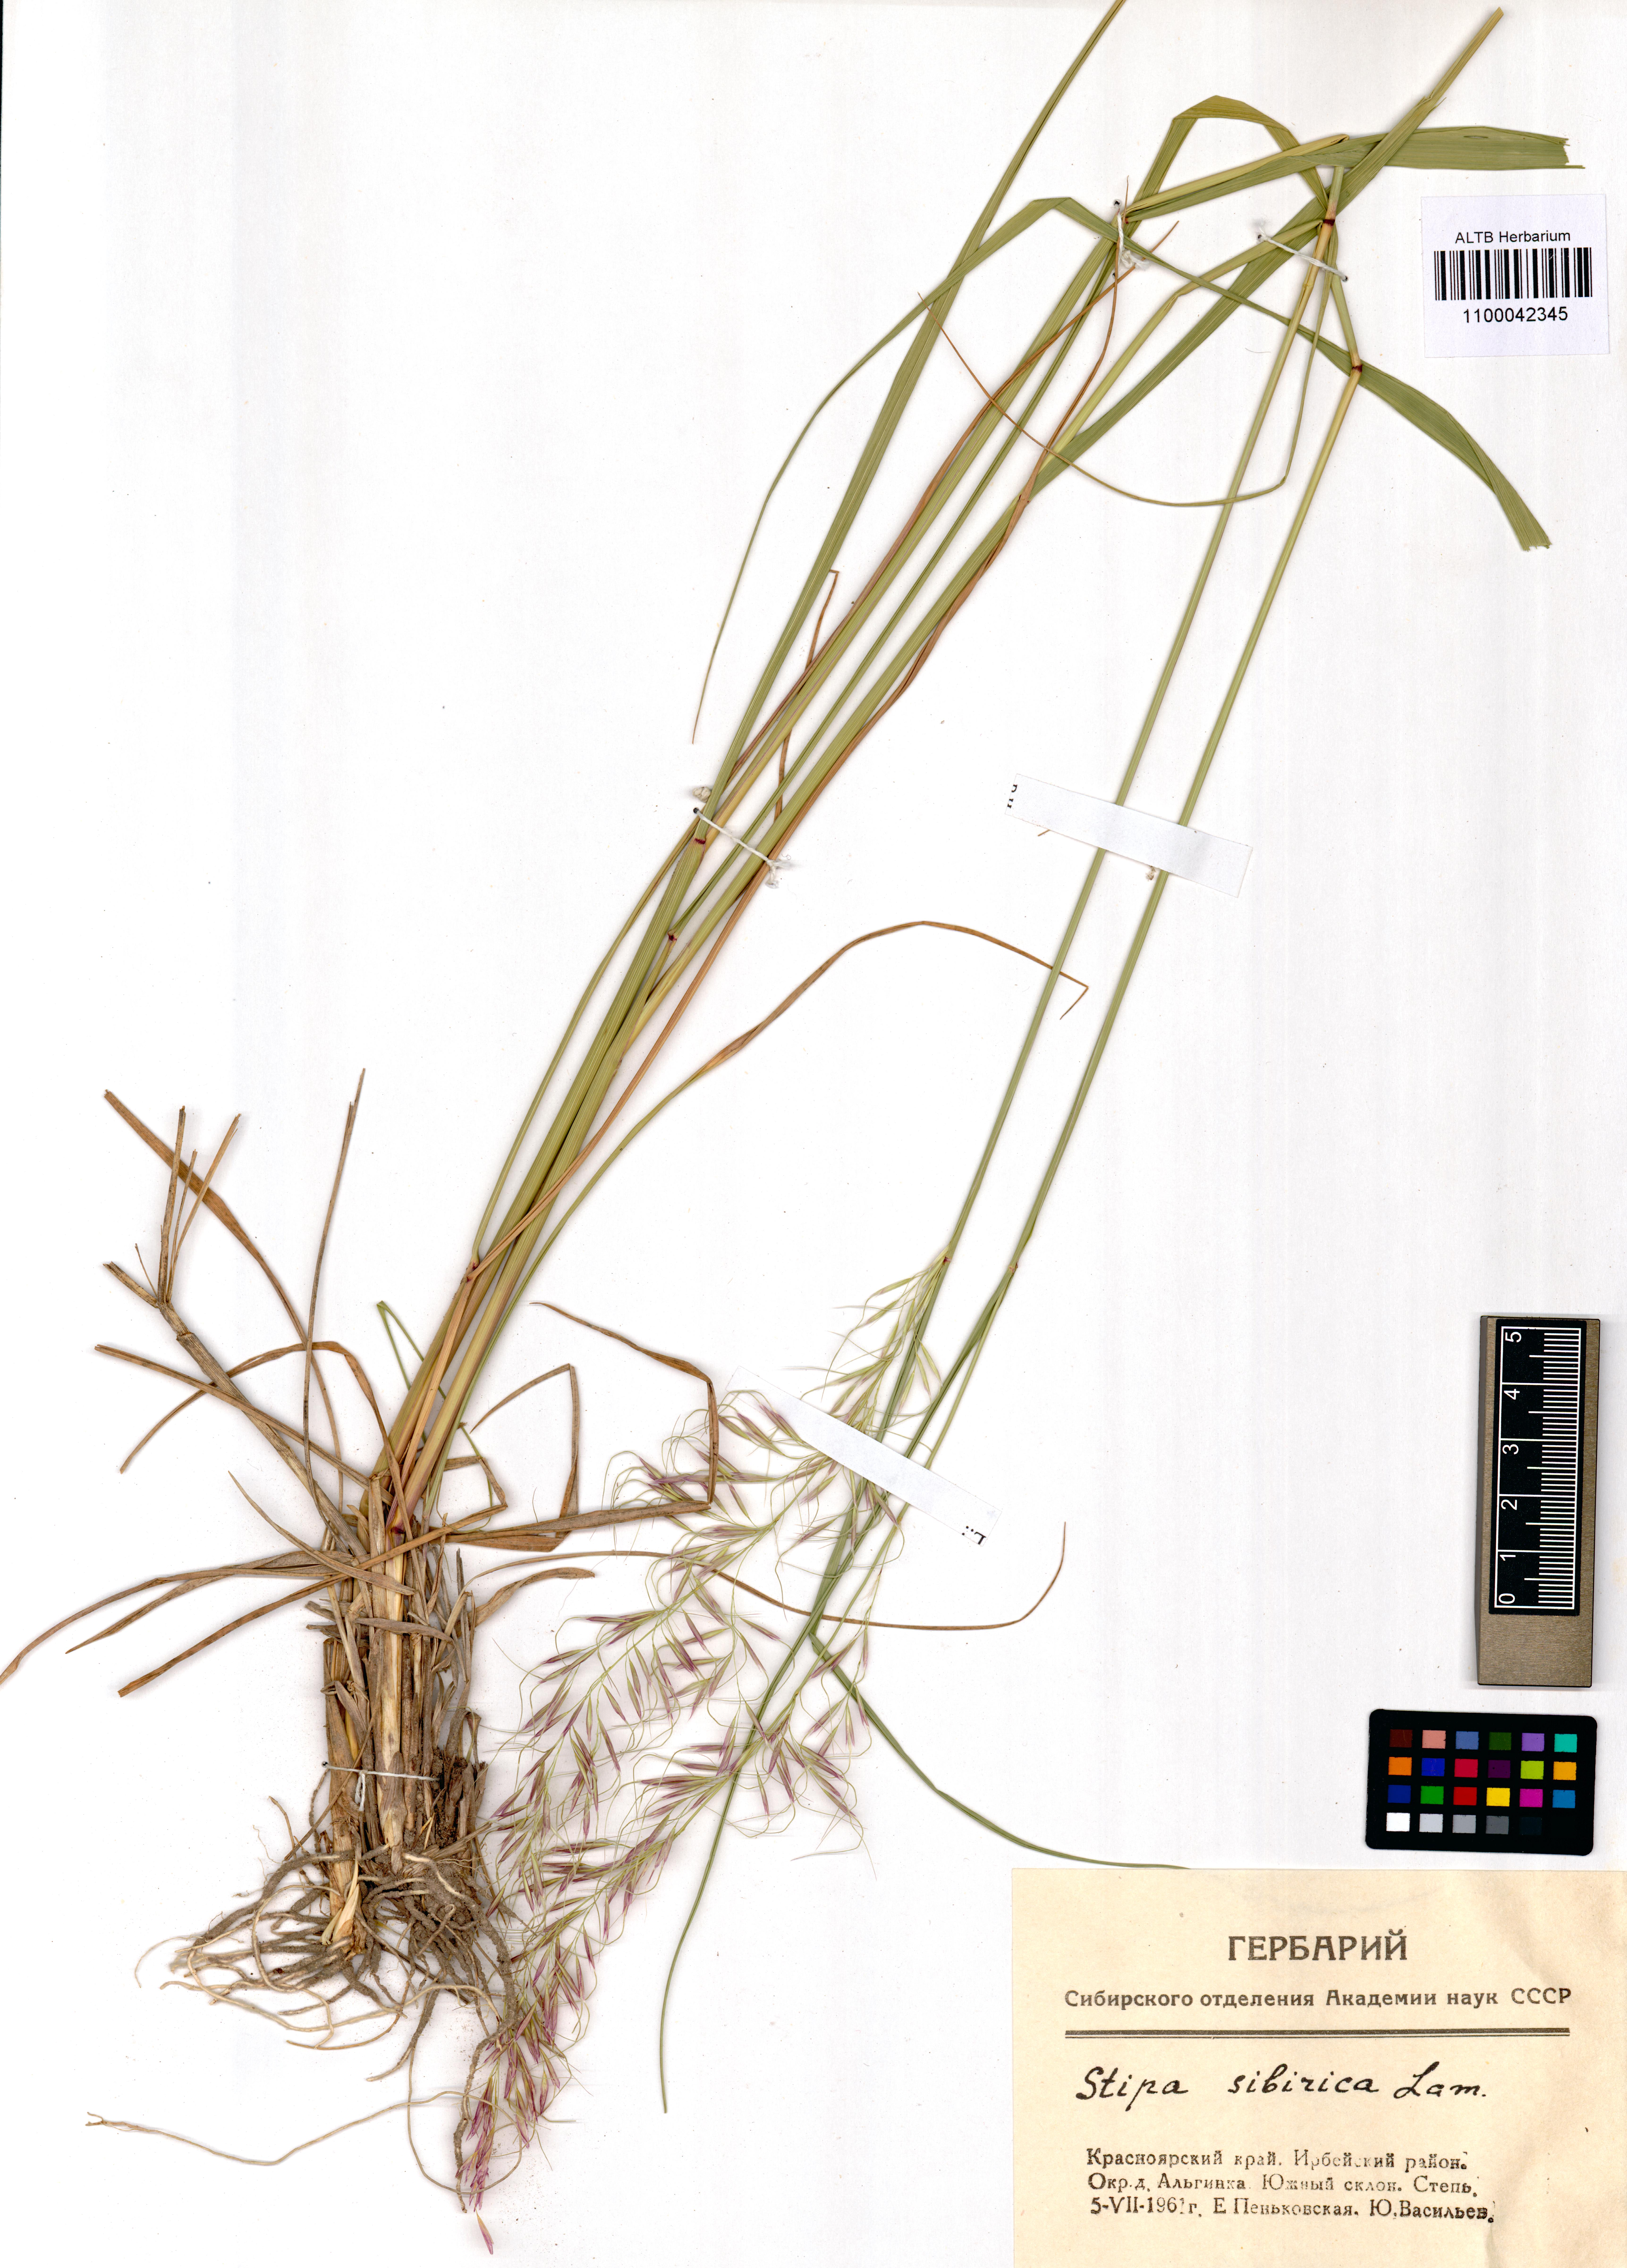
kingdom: Plantae
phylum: Tracheophyta
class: Liliopsida
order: Poales
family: Poaceae
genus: Achnatherum
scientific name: Achnatherum sibiricum
